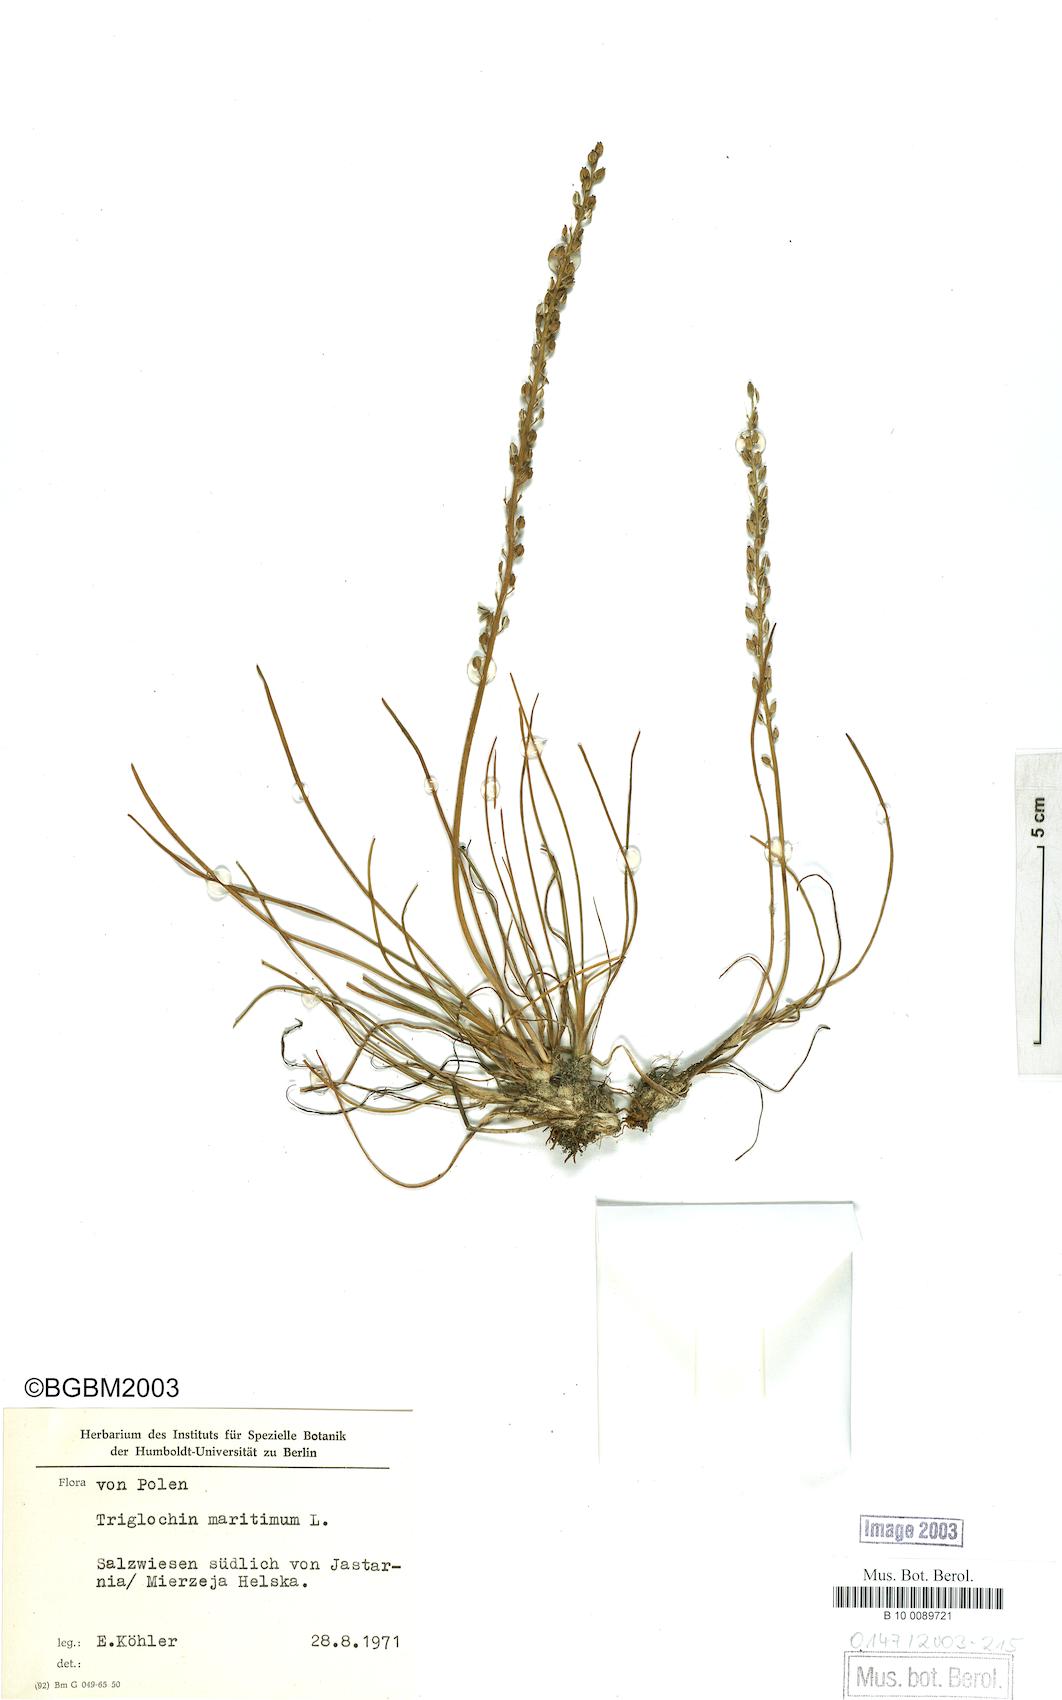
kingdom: Plantae
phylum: Tracheophyta
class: Liliopsida
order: Alismatales
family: Juncaginaceae
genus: Triglochin
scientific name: Triglochin maritima
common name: Sea arrowgrass
